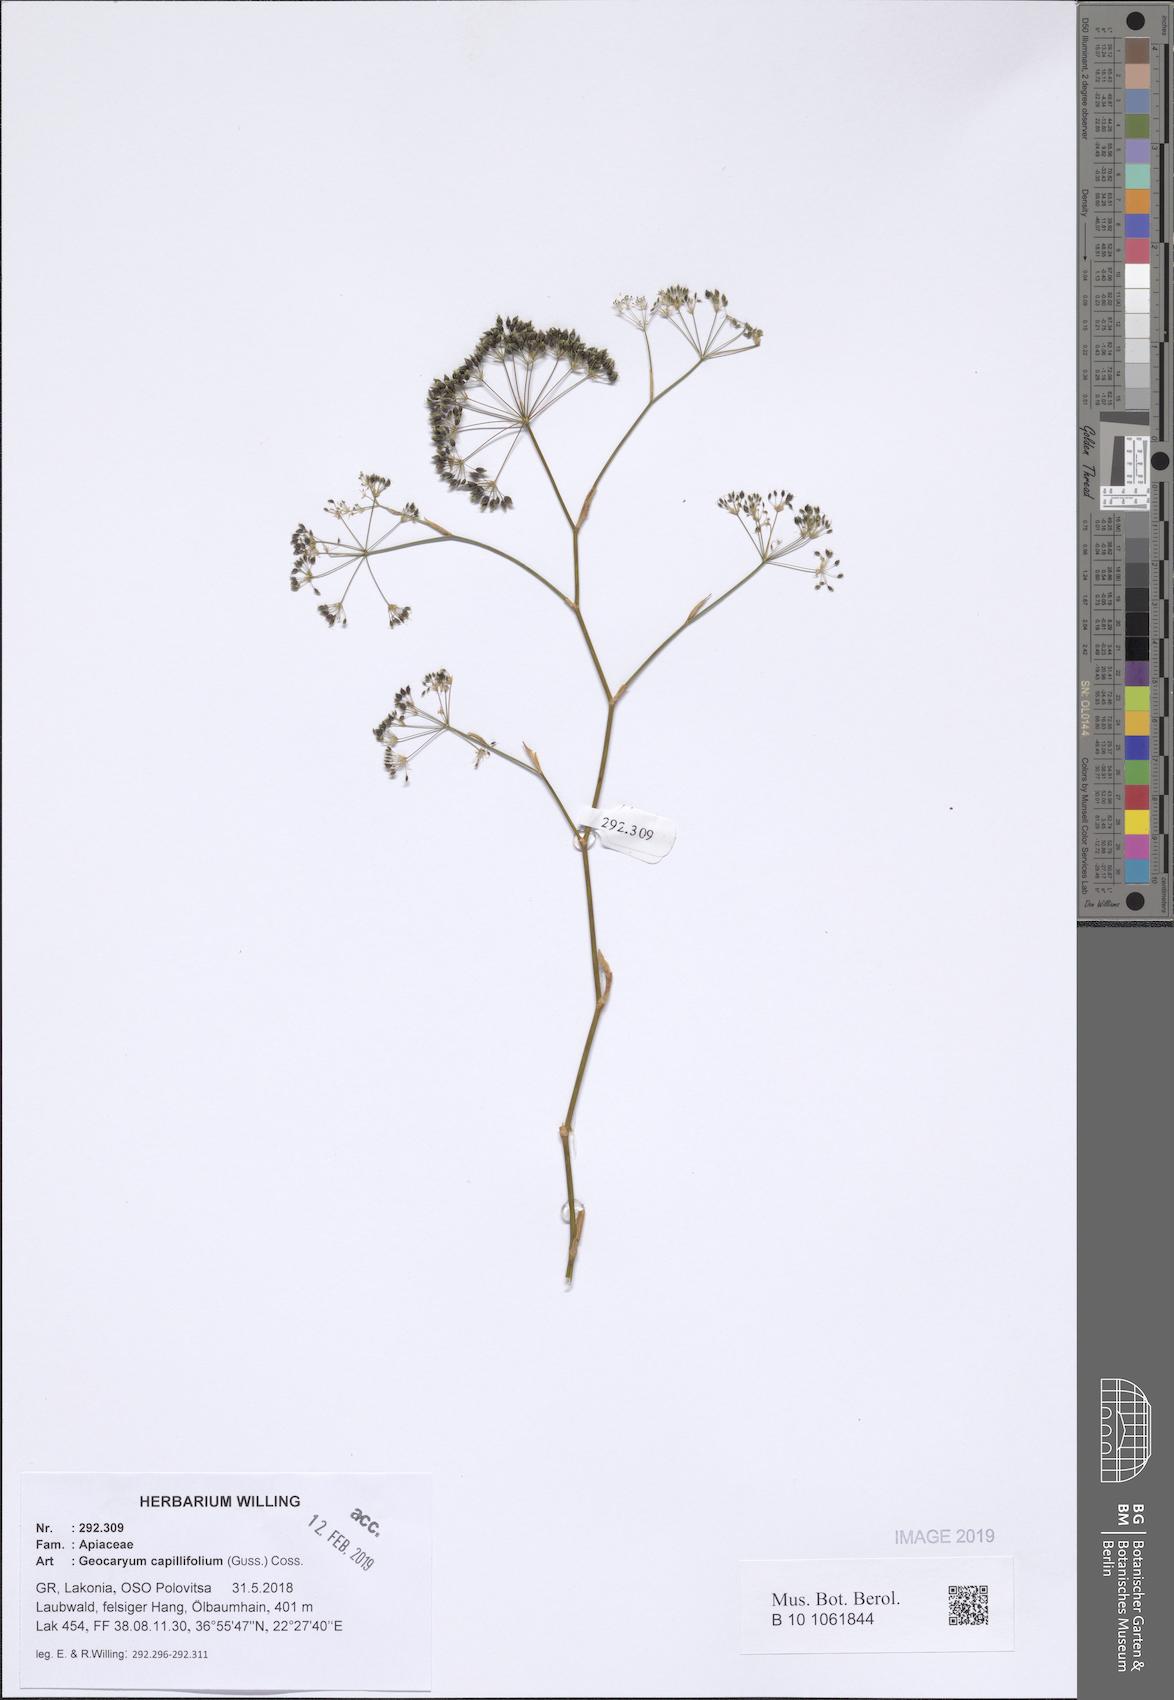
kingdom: Plantae
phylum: Tracheophyta
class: Magnoliopsida
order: Apiales
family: Apiaceae
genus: Geocaryum
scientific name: Geocaryum capillifolium
